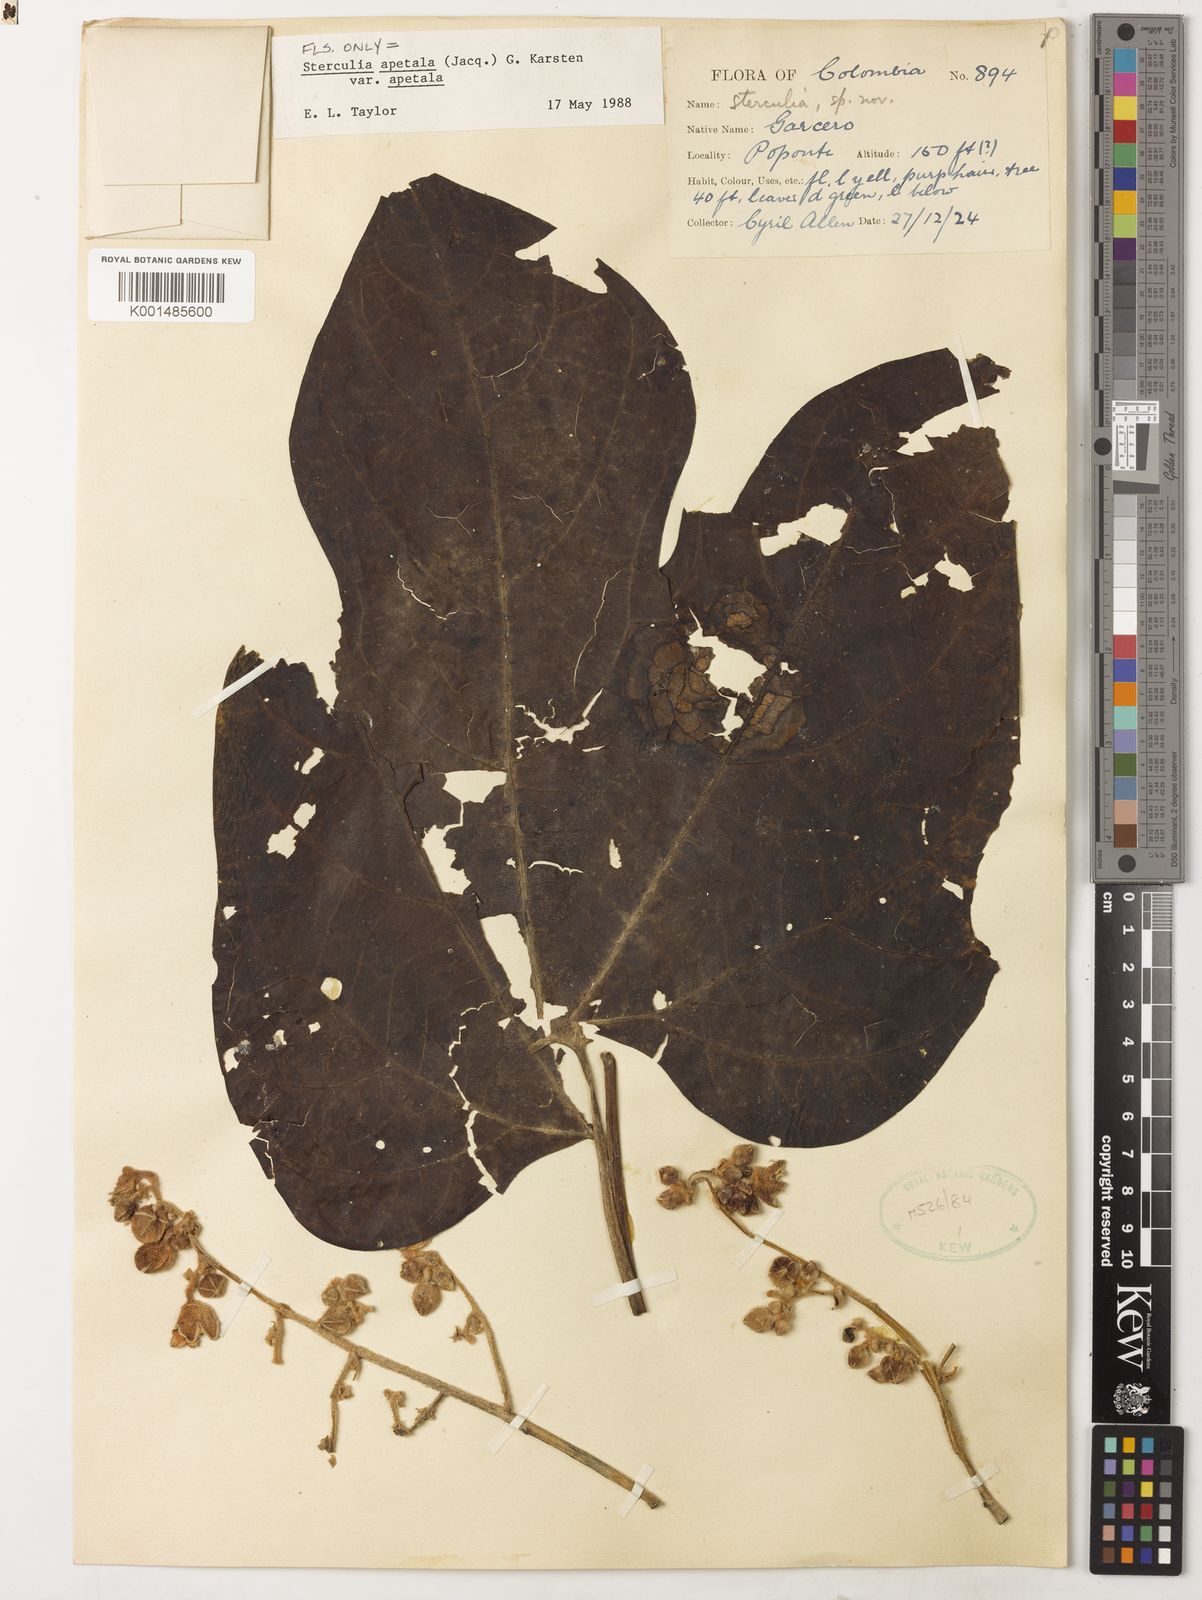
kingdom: Plantae
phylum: Tracheophyta
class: Magnoliopsida
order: Malvales
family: Malvaceae
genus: Sterculia
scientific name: Sterculia apetala
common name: Panama tree
